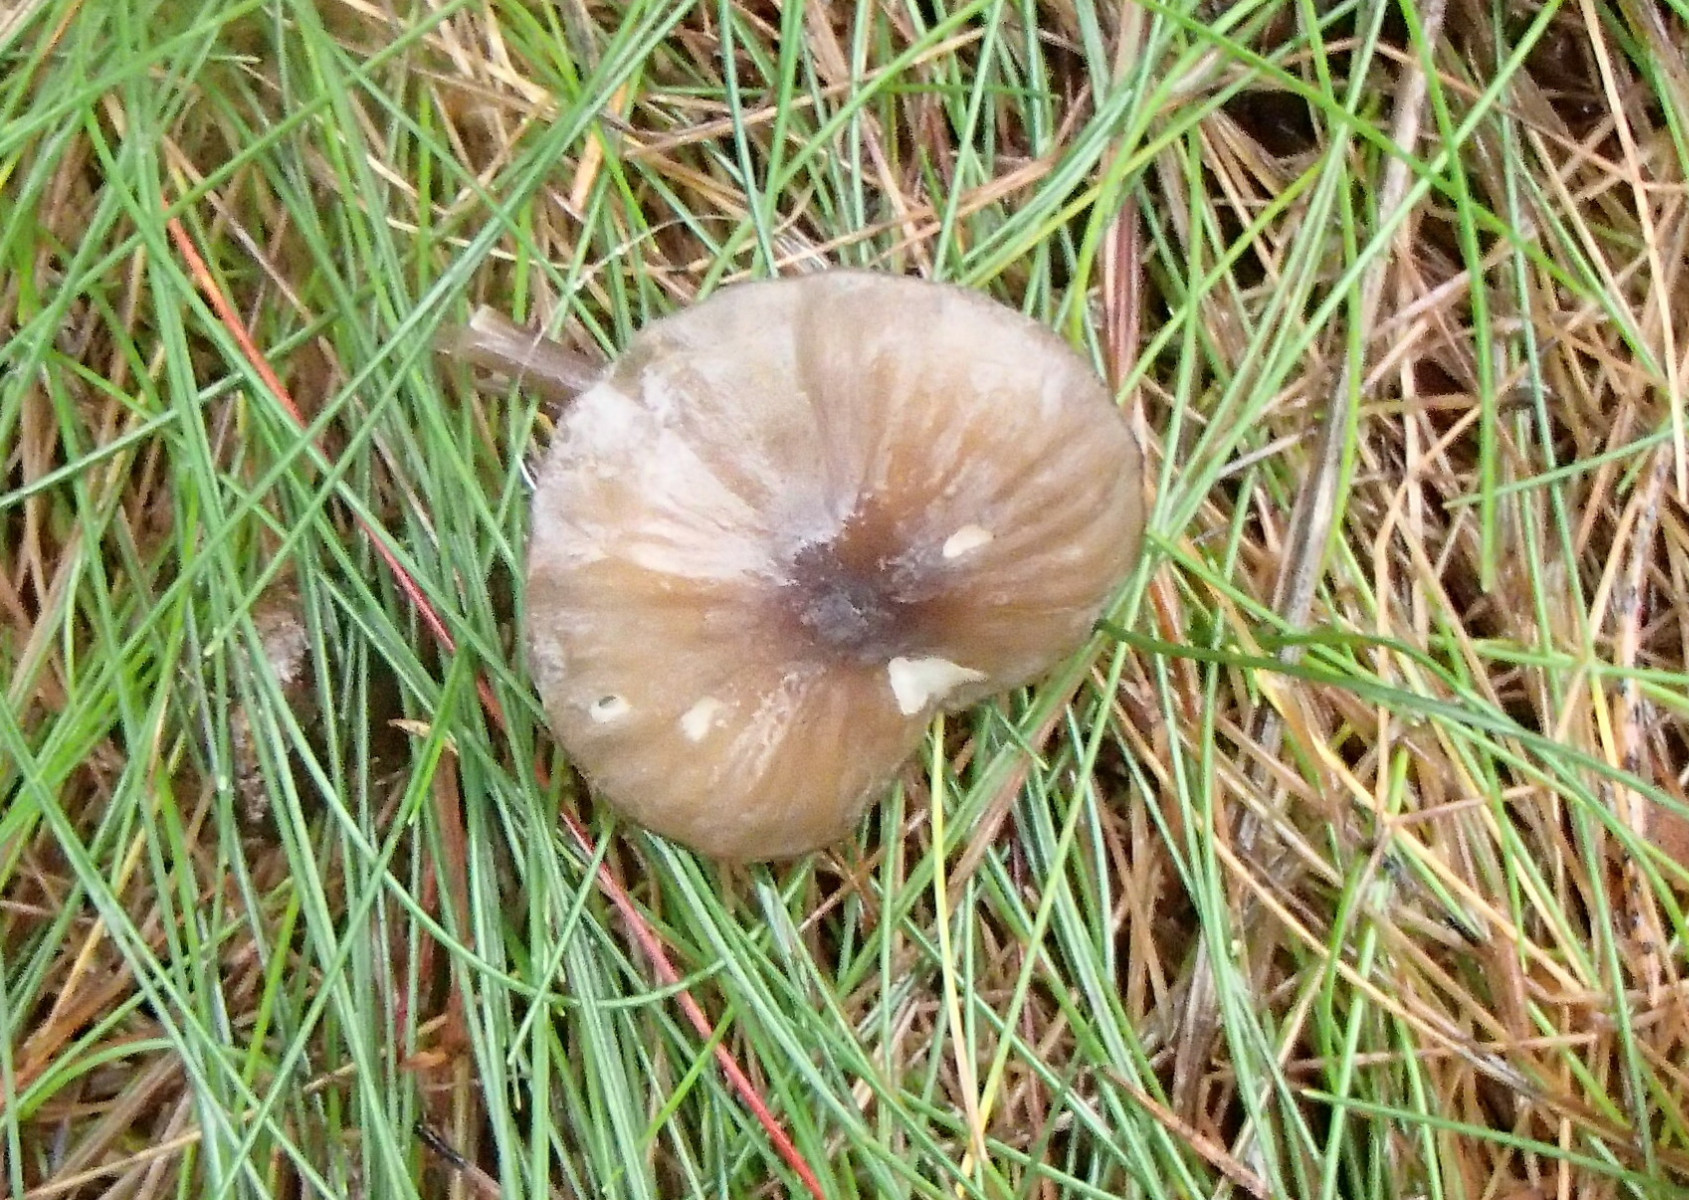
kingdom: Fungi
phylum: Basidiomycota
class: Agaricomycetes
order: Agaricales
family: Mycenaceae
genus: Mycena
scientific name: Mycena galopus
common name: hvidmælket huesvamp
